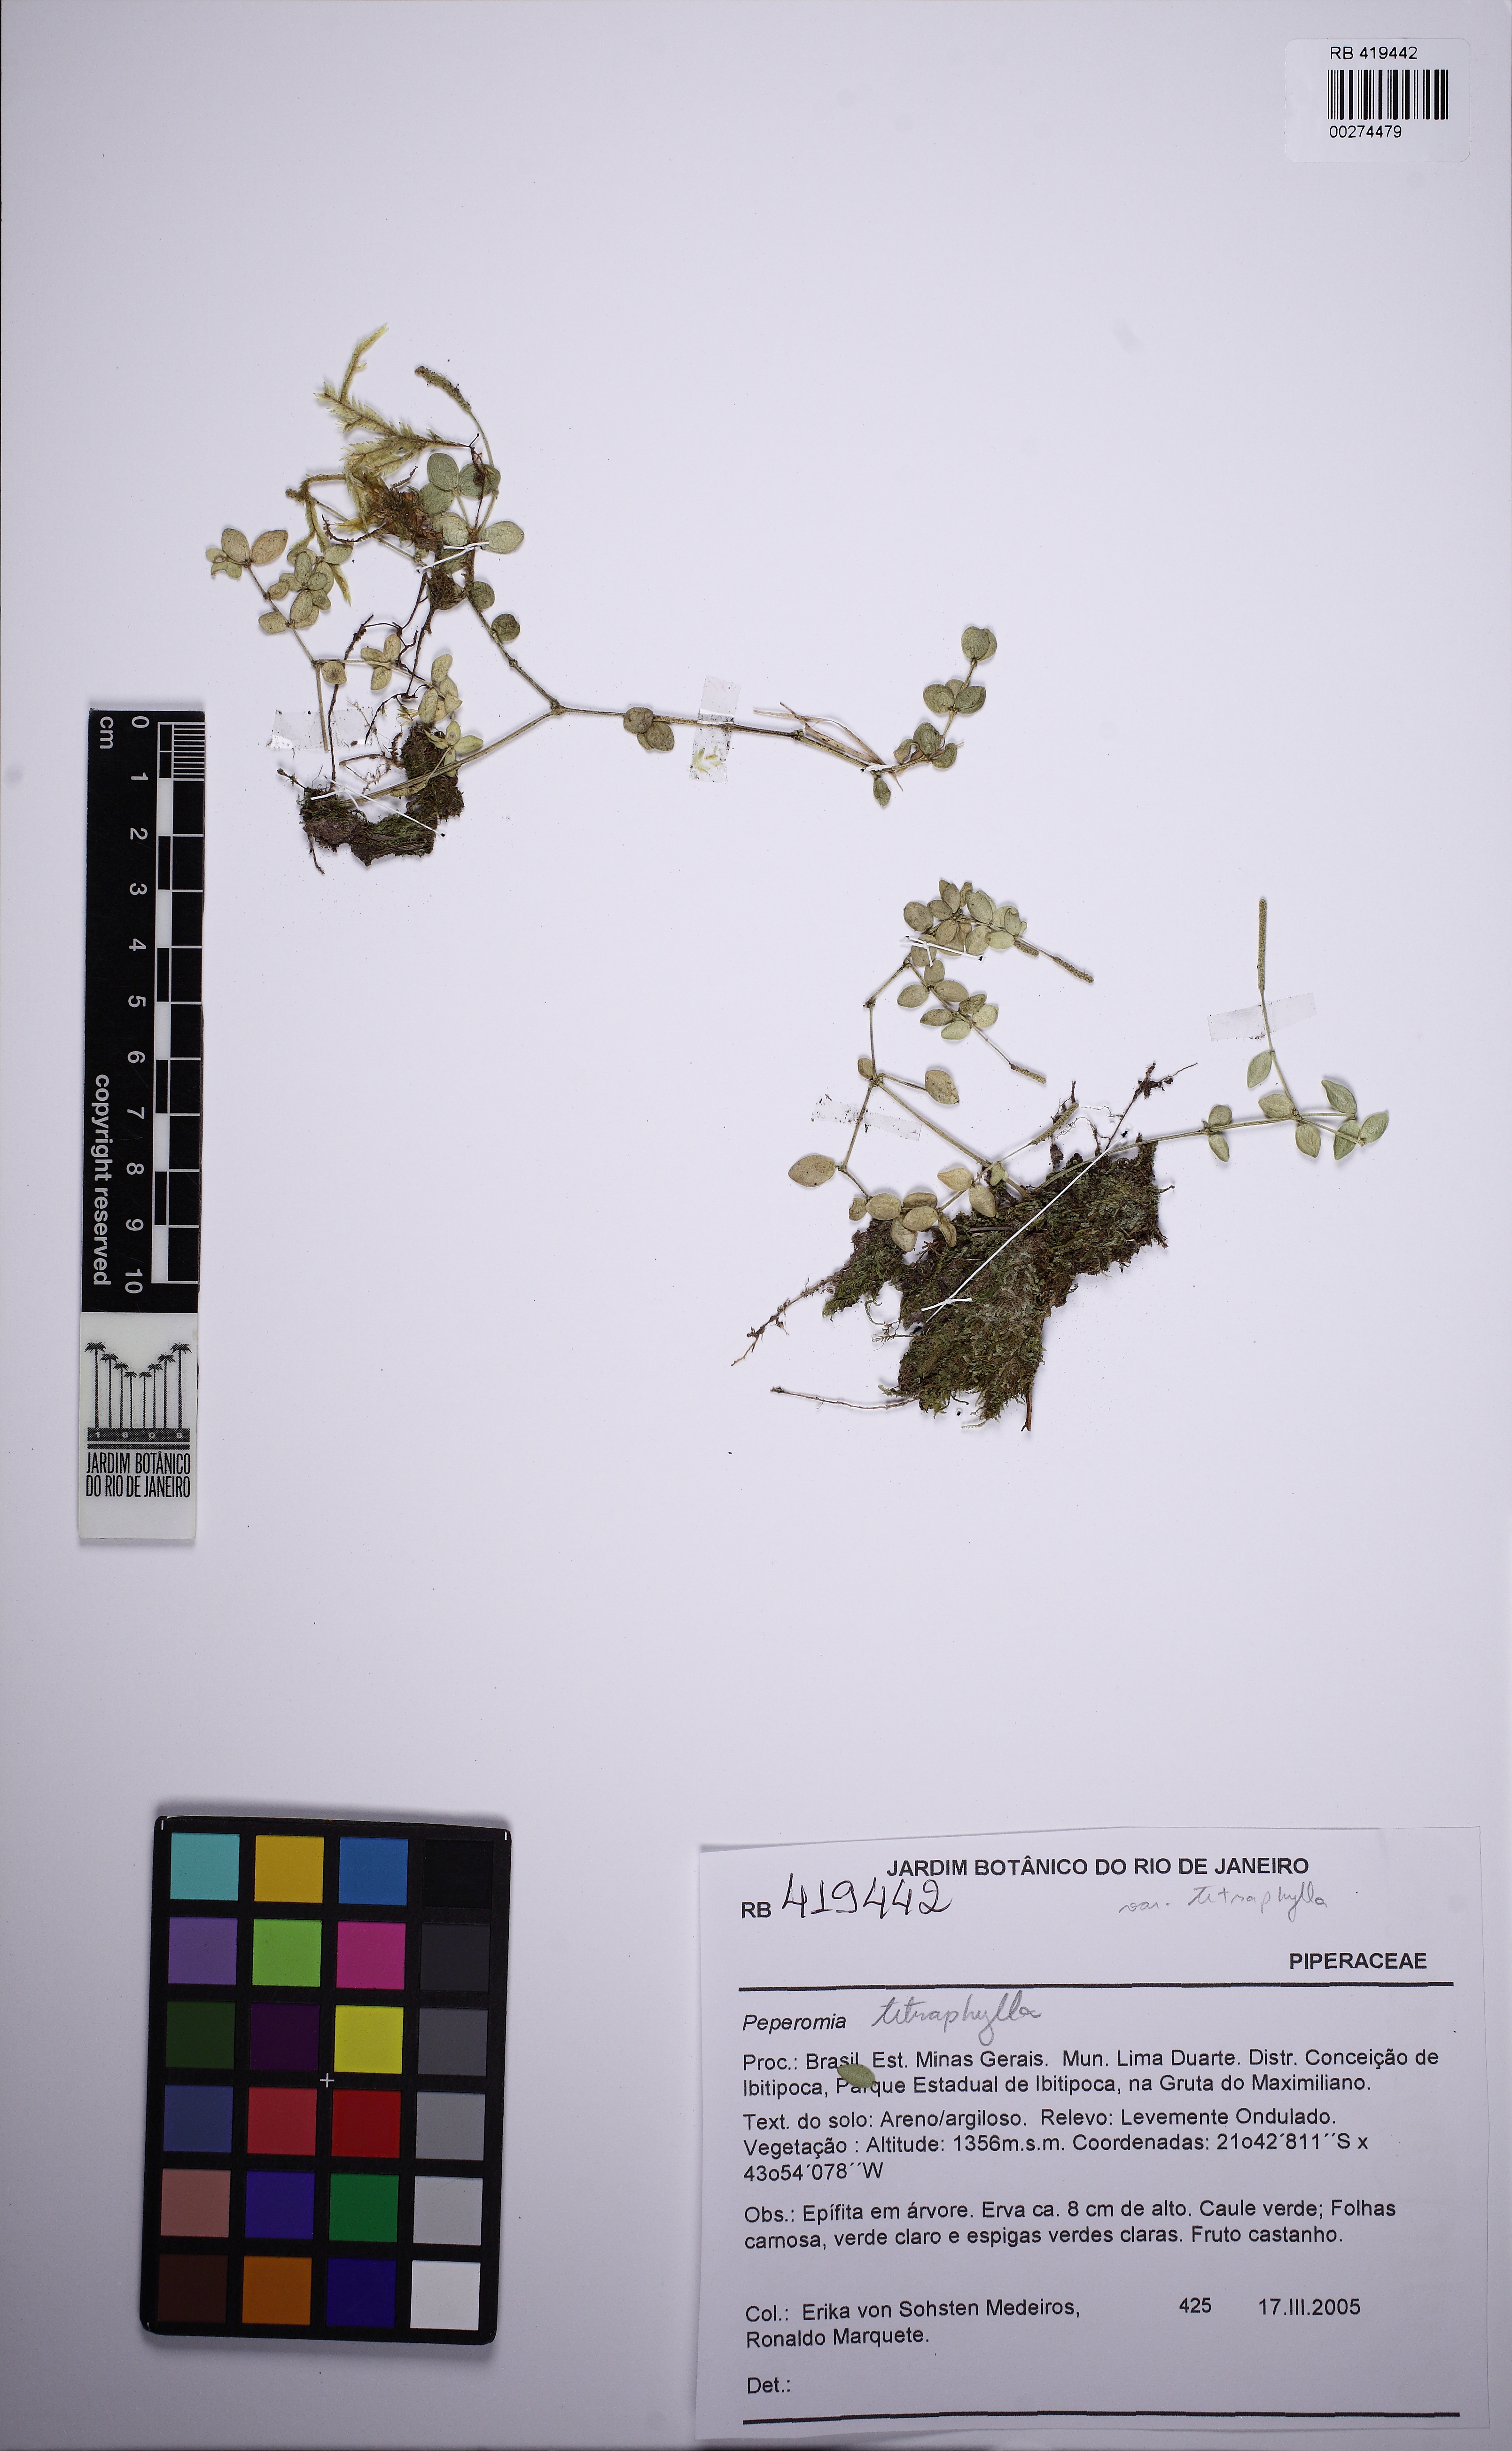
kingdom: Plantae
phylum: Tracheophyta
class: Magnoliopsida
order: Piperales
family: Piperaceae
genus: Peperomia
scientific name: Peperomia tetraphylla
